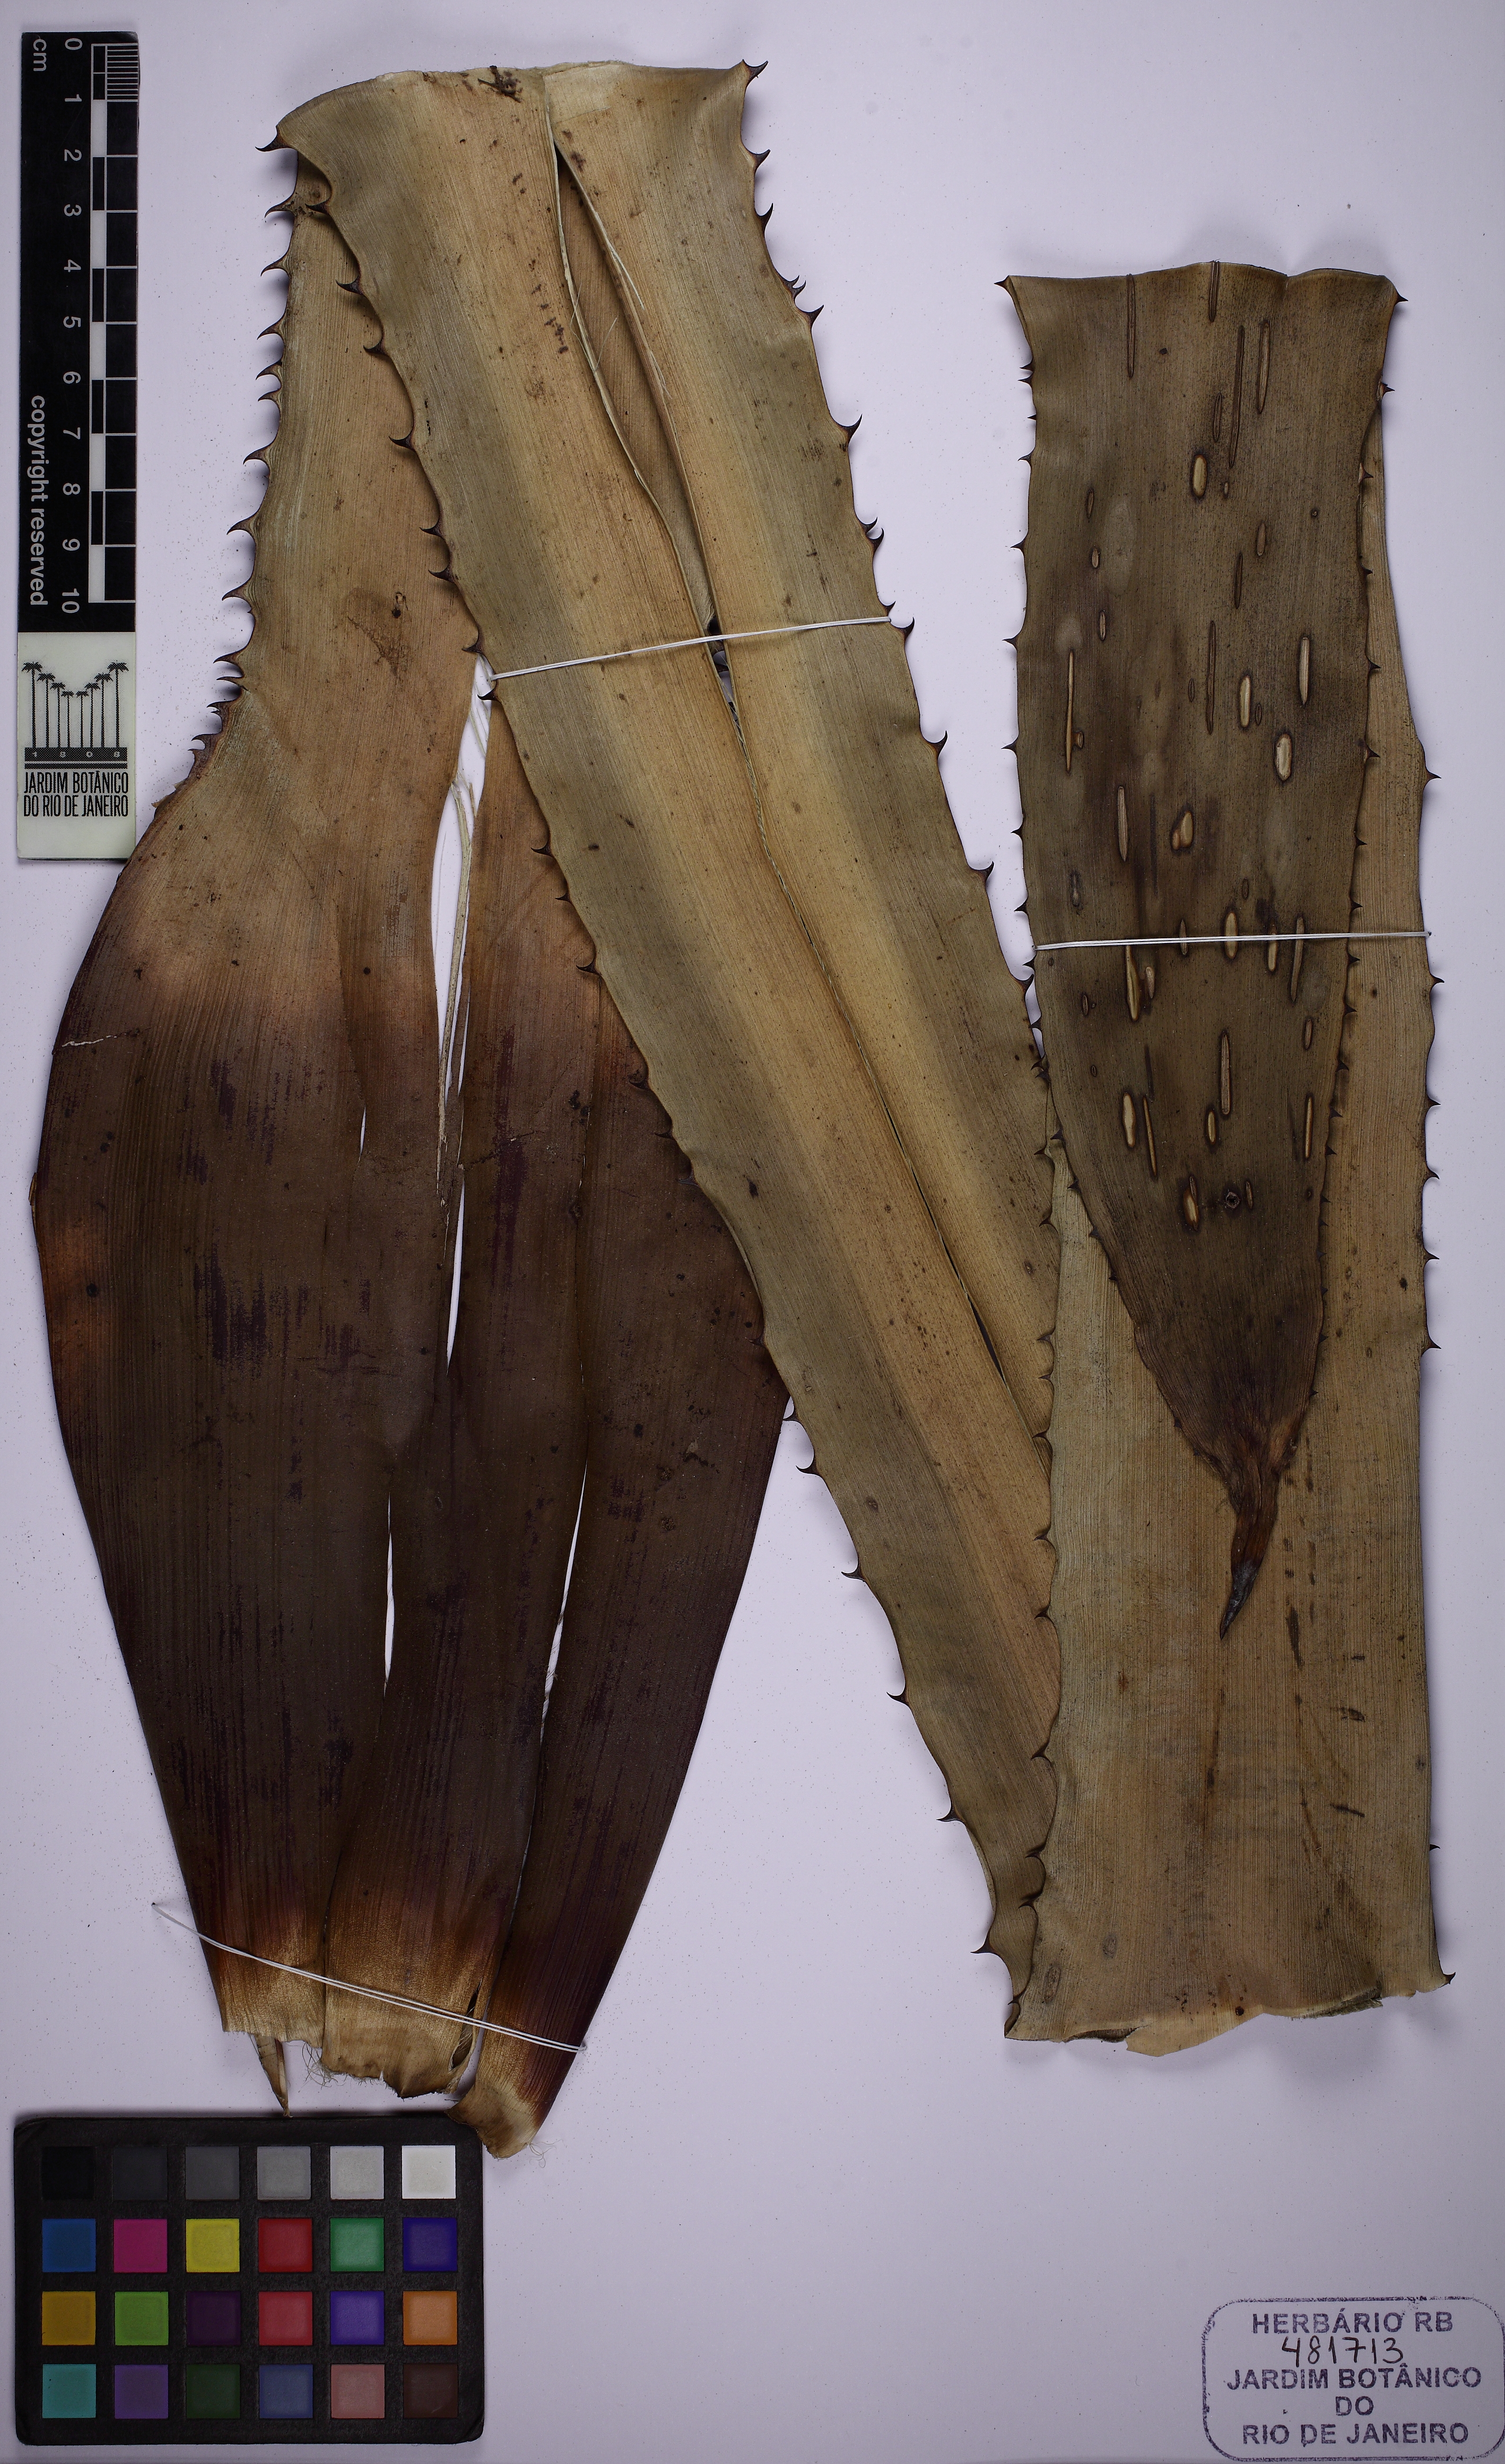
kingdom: Plantae
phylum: Tracheophyta
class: Liliopsida
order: Poales
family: Bromeliaceae
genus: Aechmea
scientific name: Aechmea
